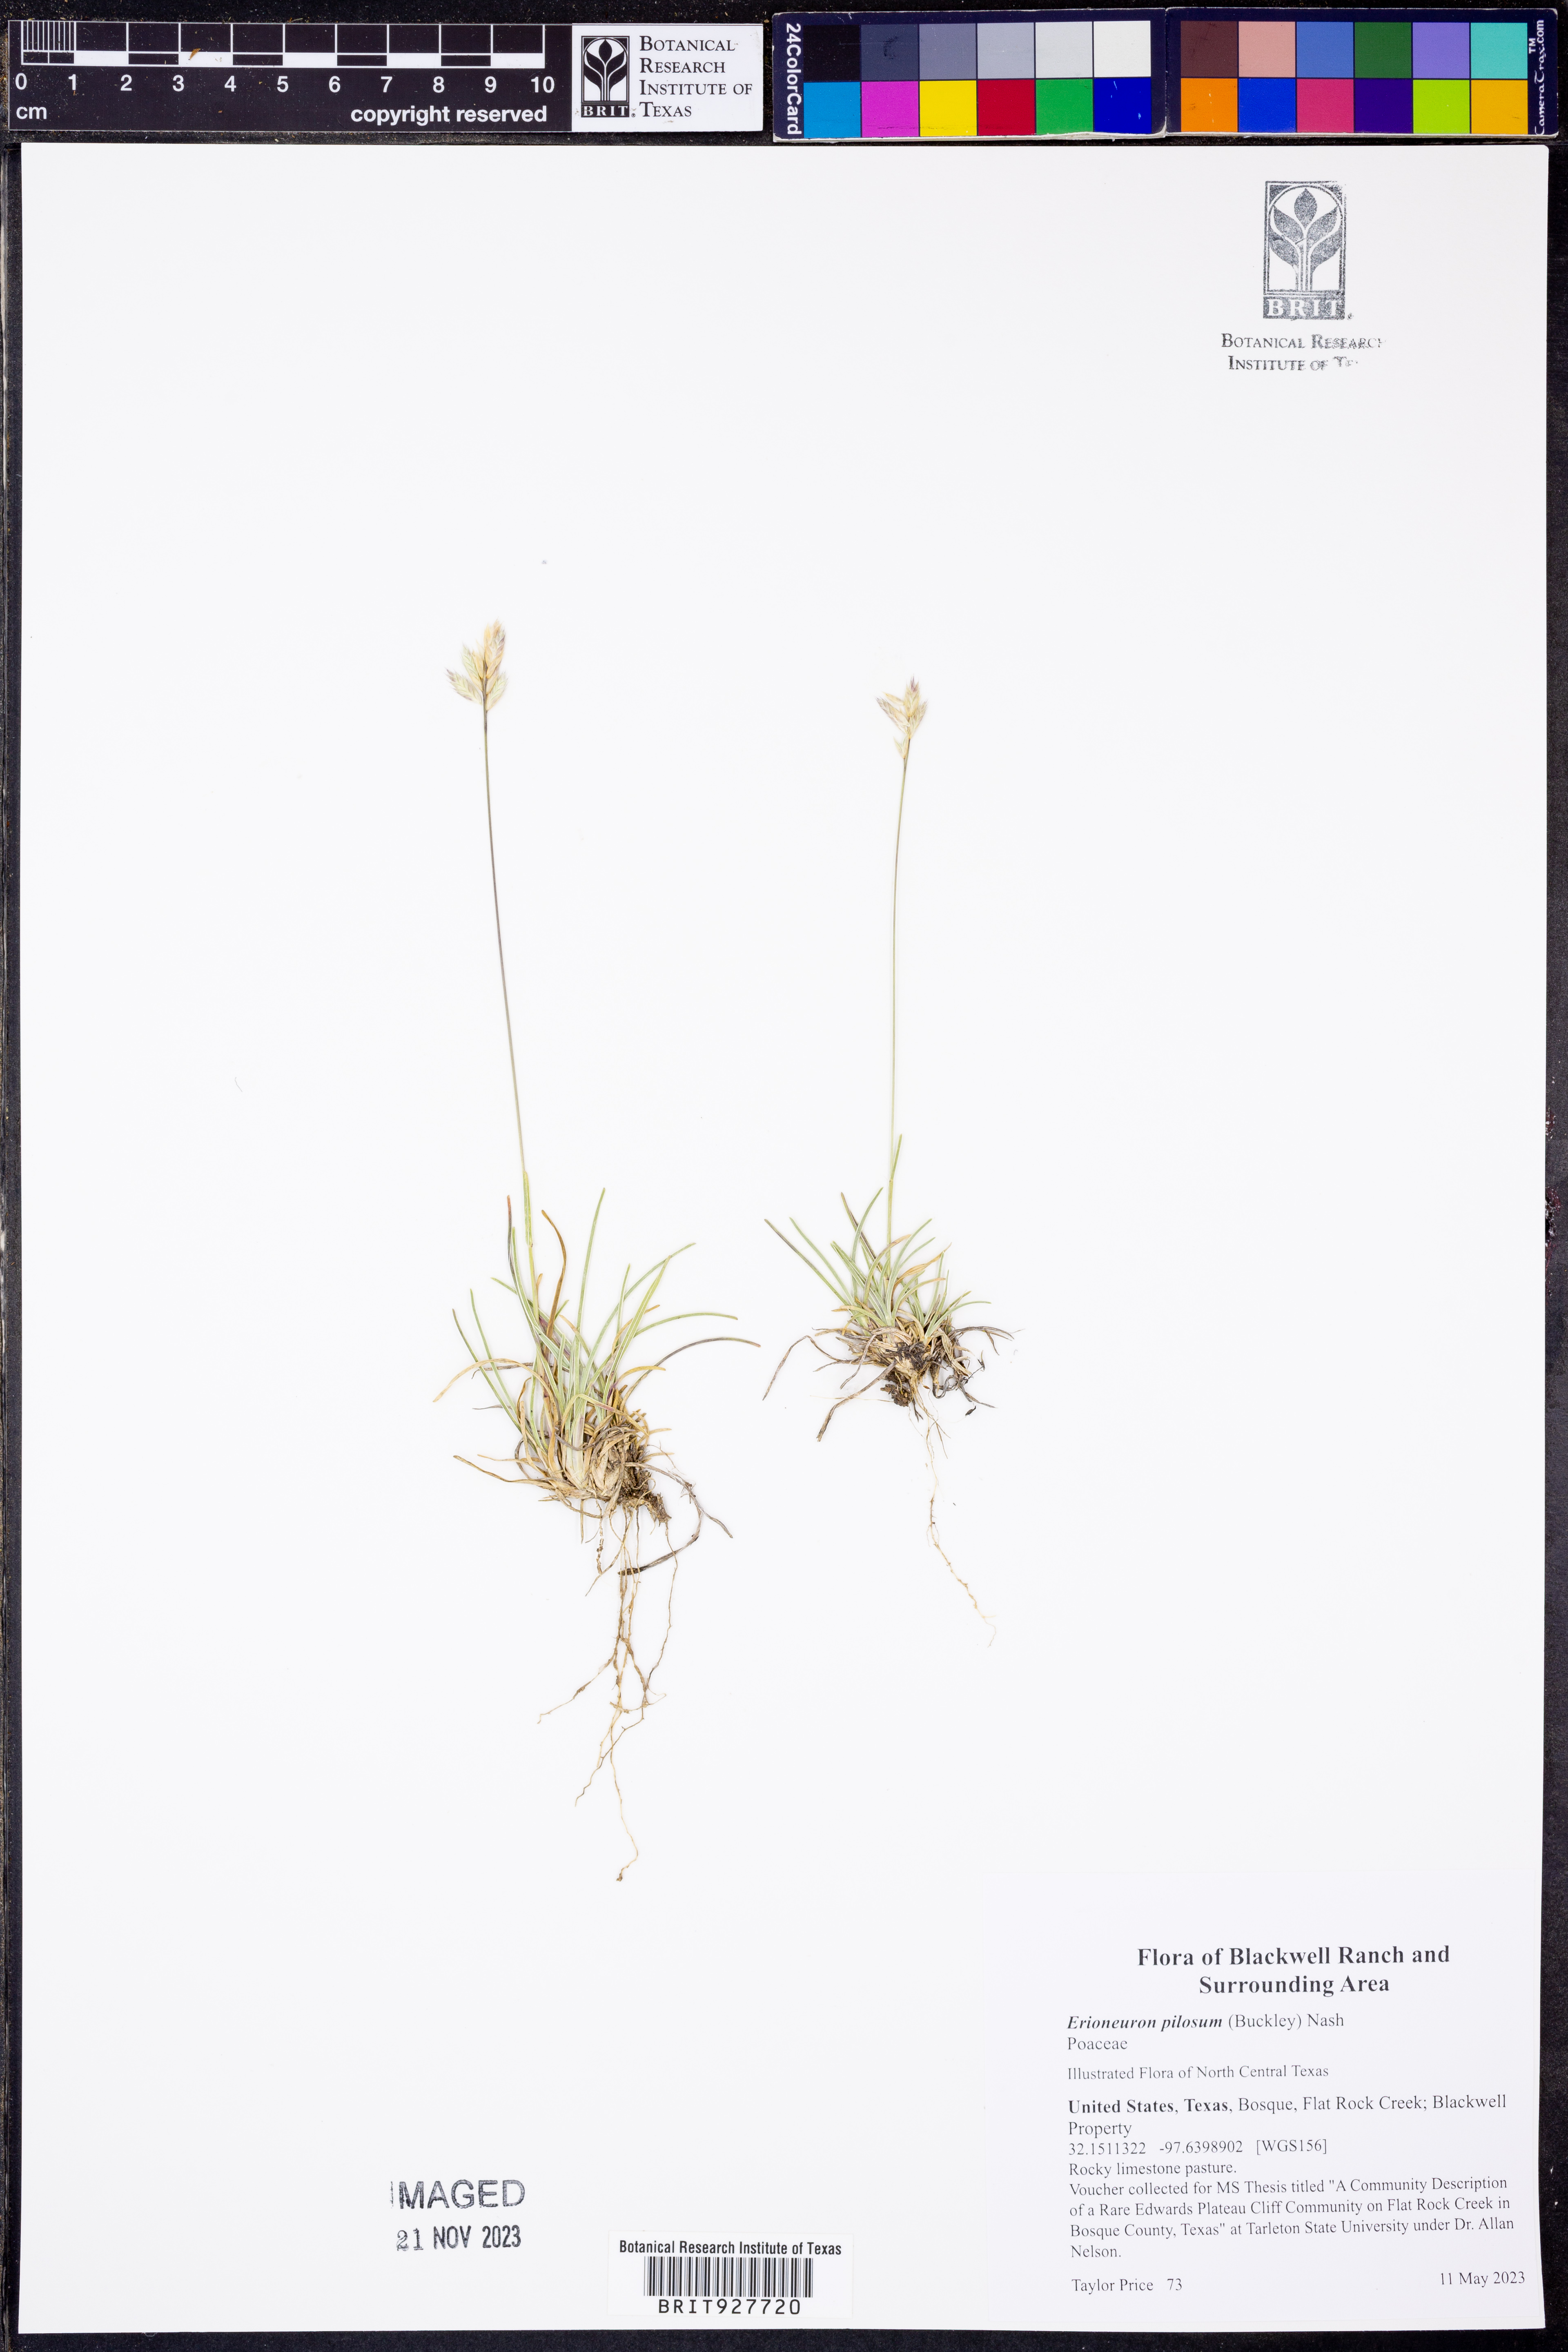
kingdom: Plantae
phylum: Tracheophyta
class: Liliopsida
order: Poales
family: Poaceae
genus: Erioneuron
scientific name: Erioneuron pilosum
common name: Hairy woolly grass
